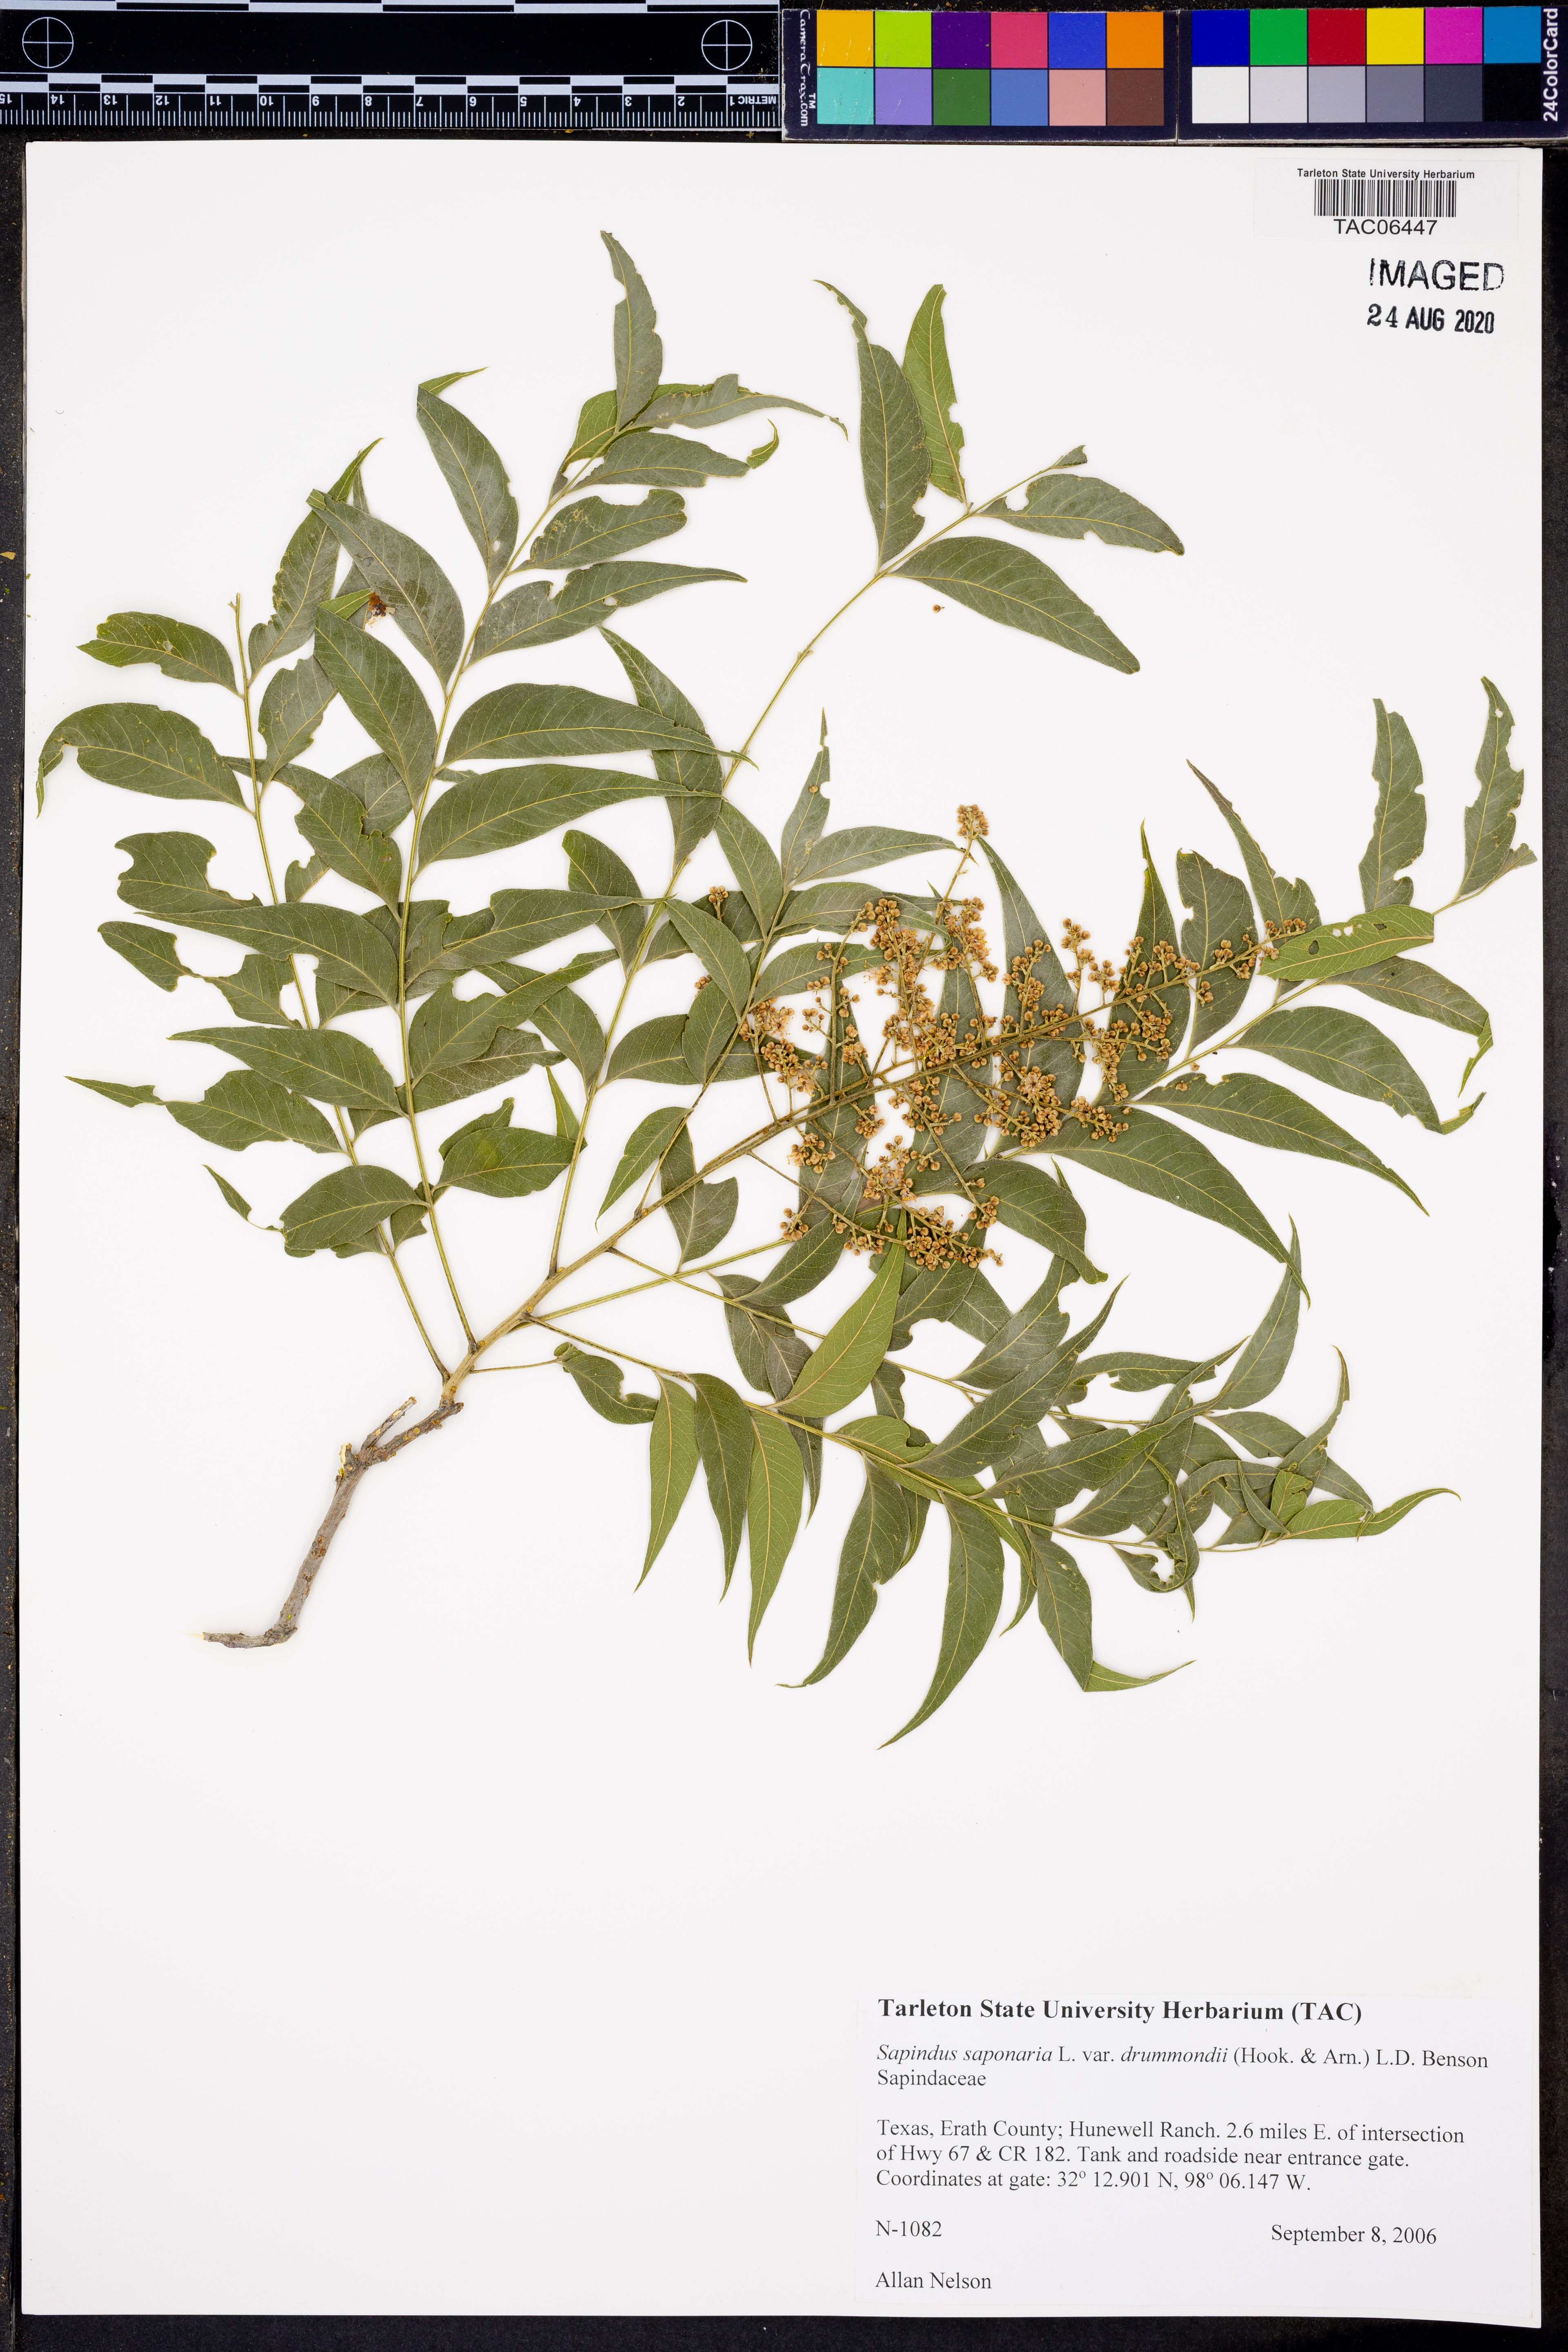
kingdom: Plantae
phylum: Tracheophyta
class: Magnoliopsida
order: Sapindales
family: Sapindaceae
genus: Sapindus
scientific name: Sapindus drummondii
